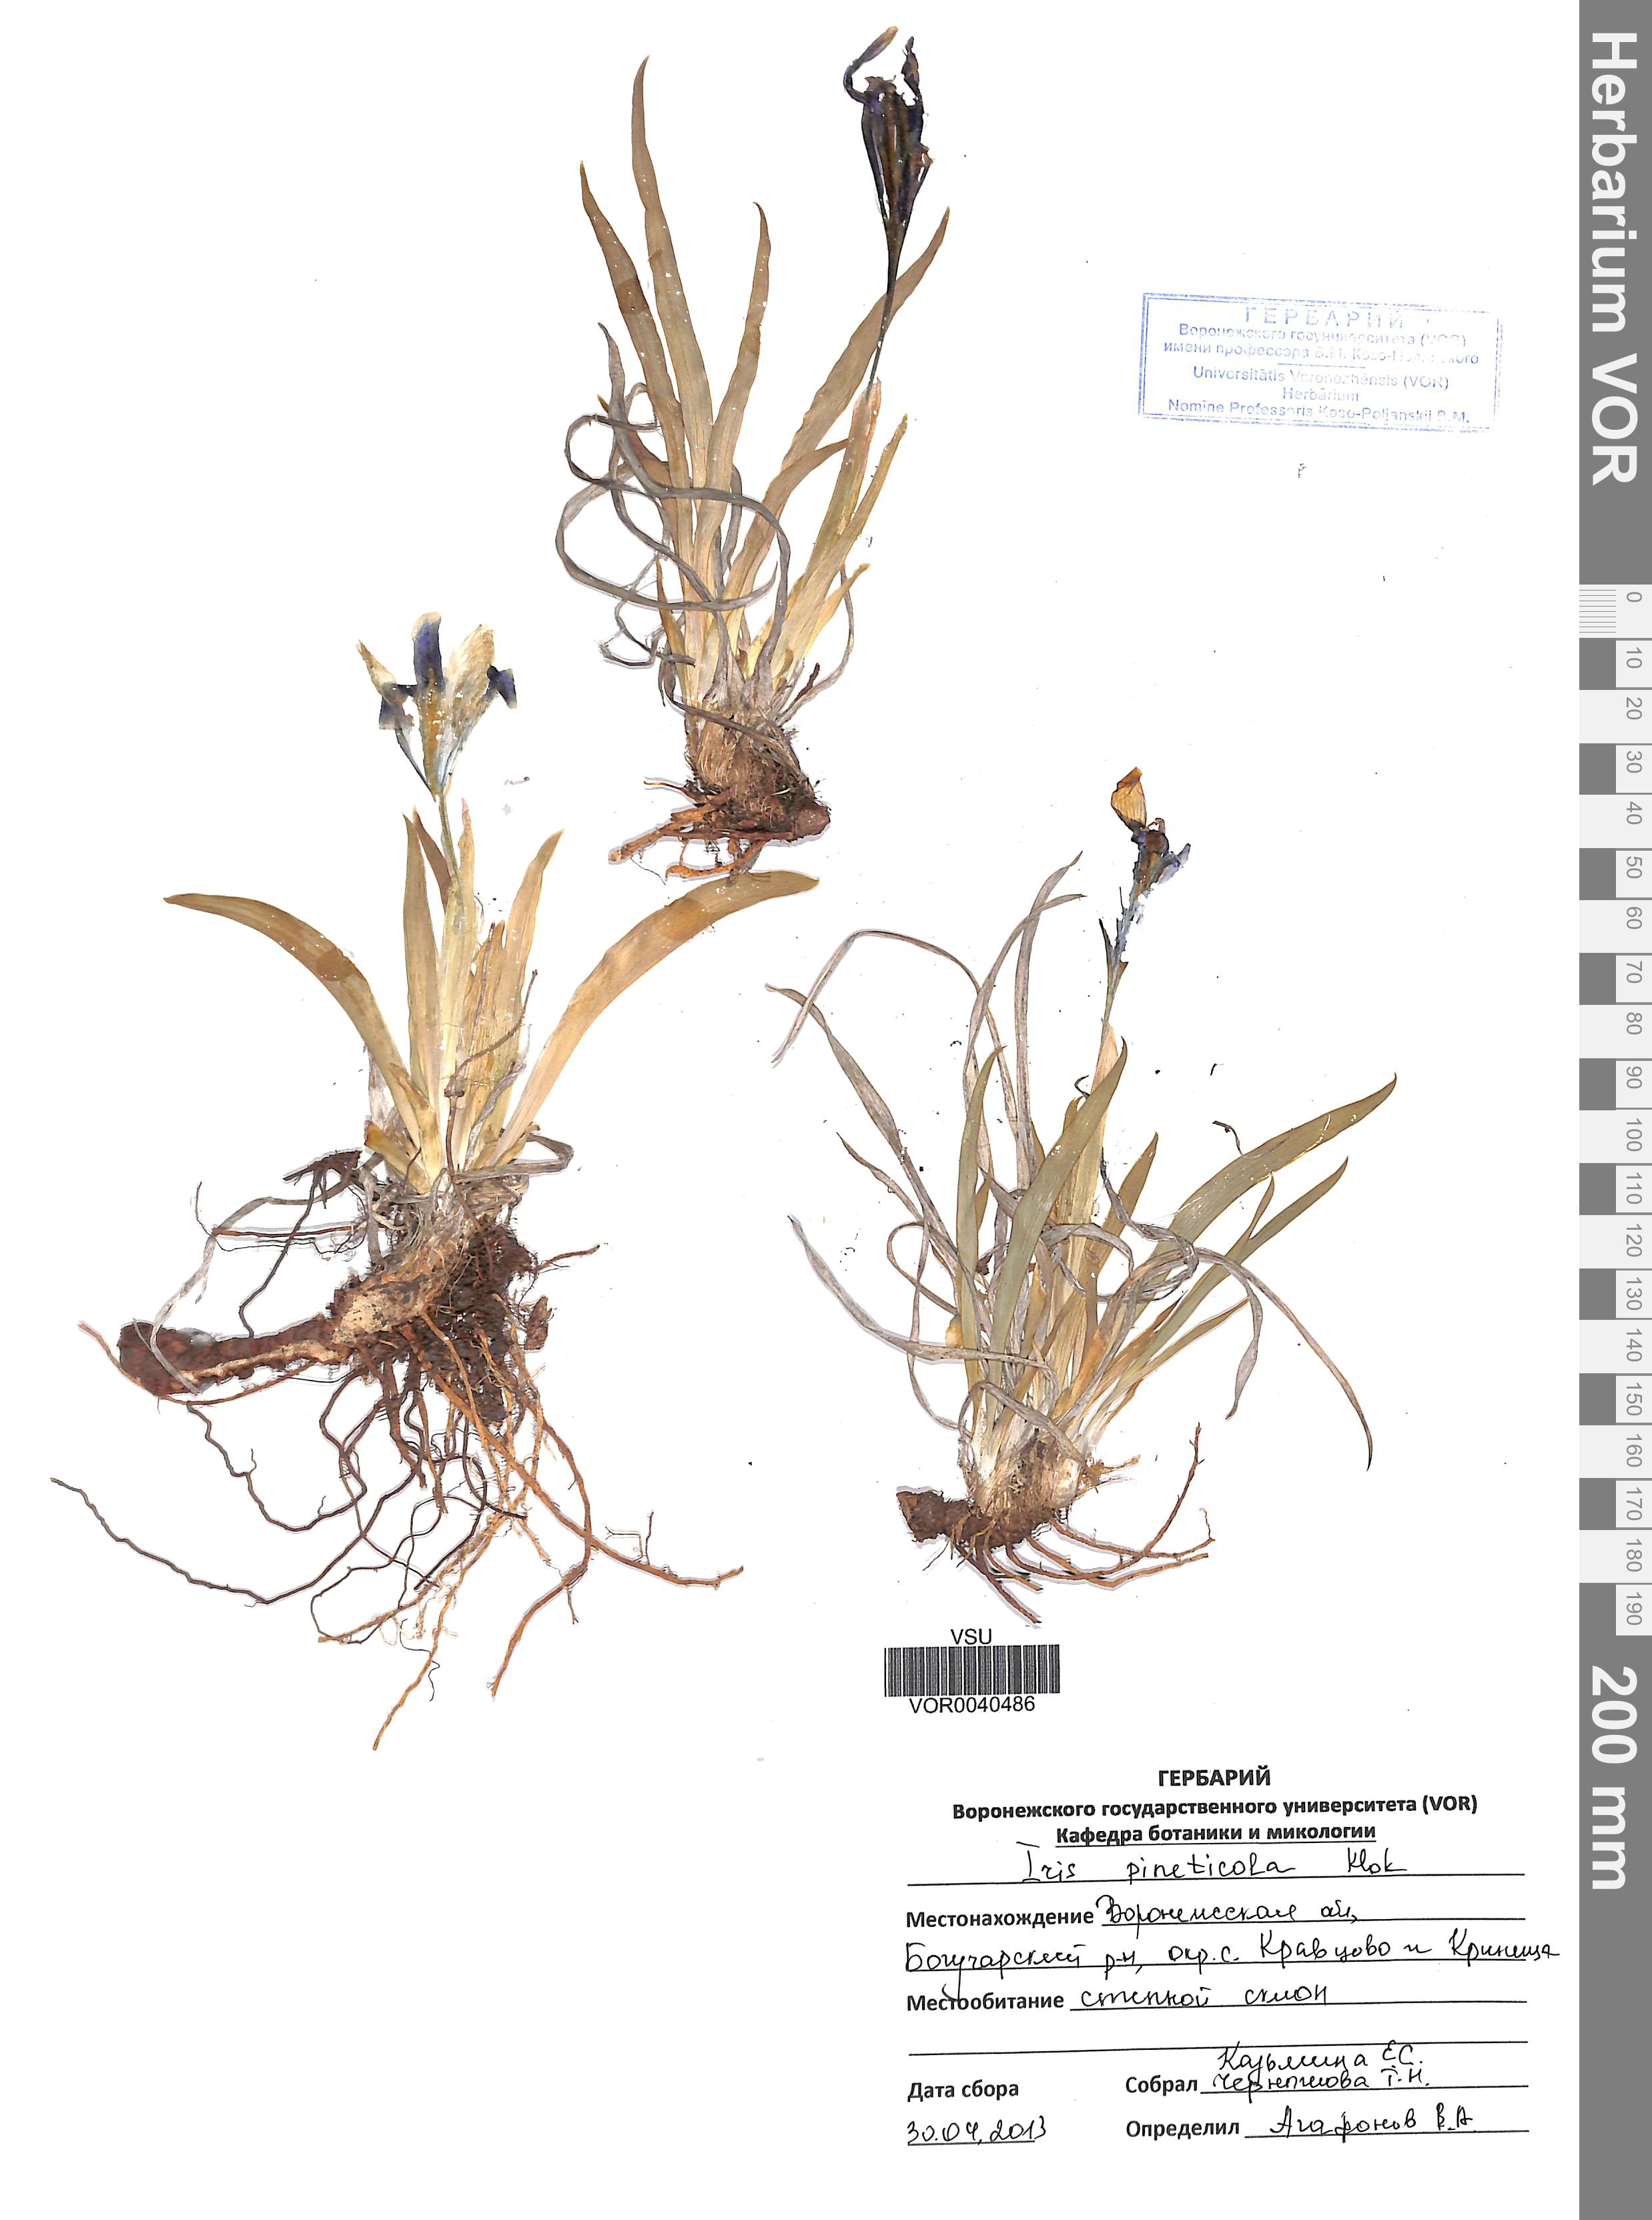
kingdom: Plantae
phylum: Tracheophyta
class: Liliopsida
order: Asparagales
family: Iridaceae
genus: Iris
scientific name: Iris arenaria
